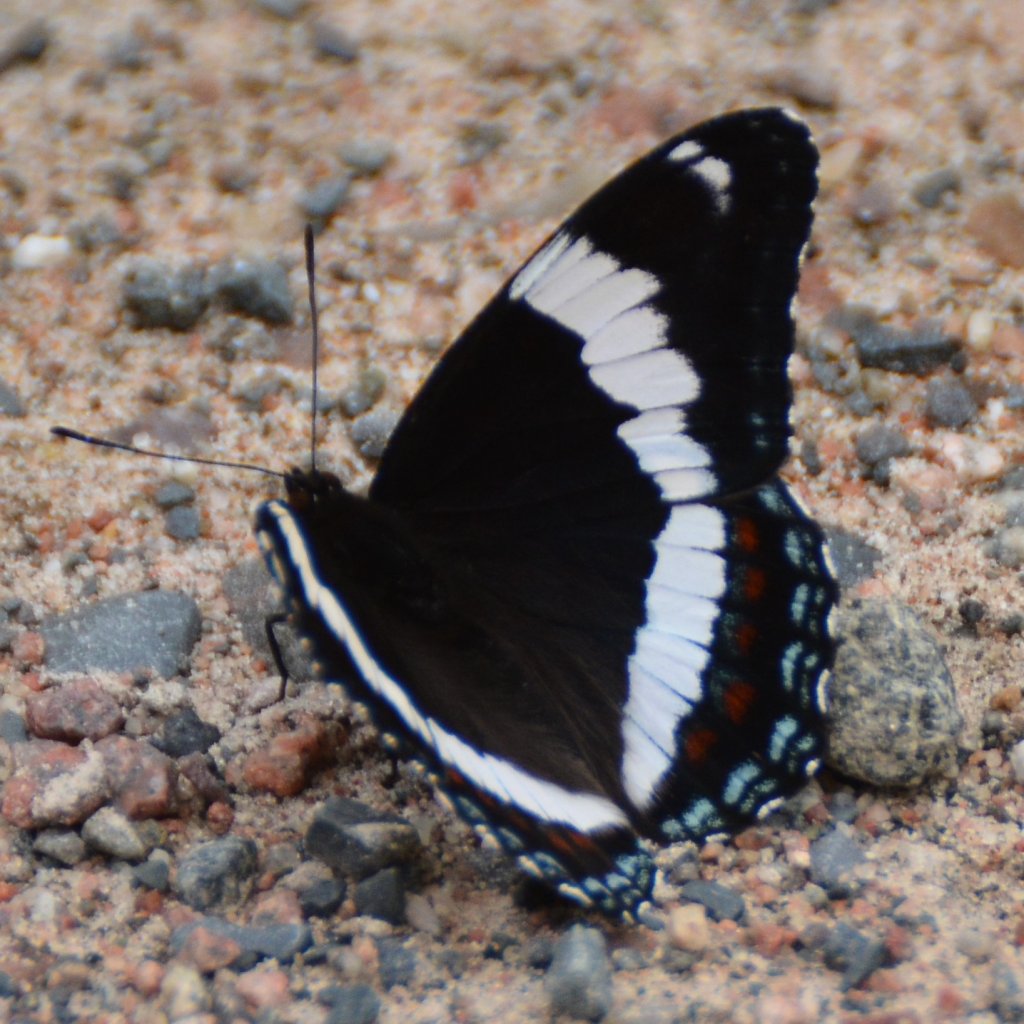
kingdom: Animalia
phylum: Arthropoda
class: Insecta
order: Lepidoptera
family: Nymphalidae
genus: Limenitis
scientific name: Limenitis arthemis
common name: Red-spotted Admiral
